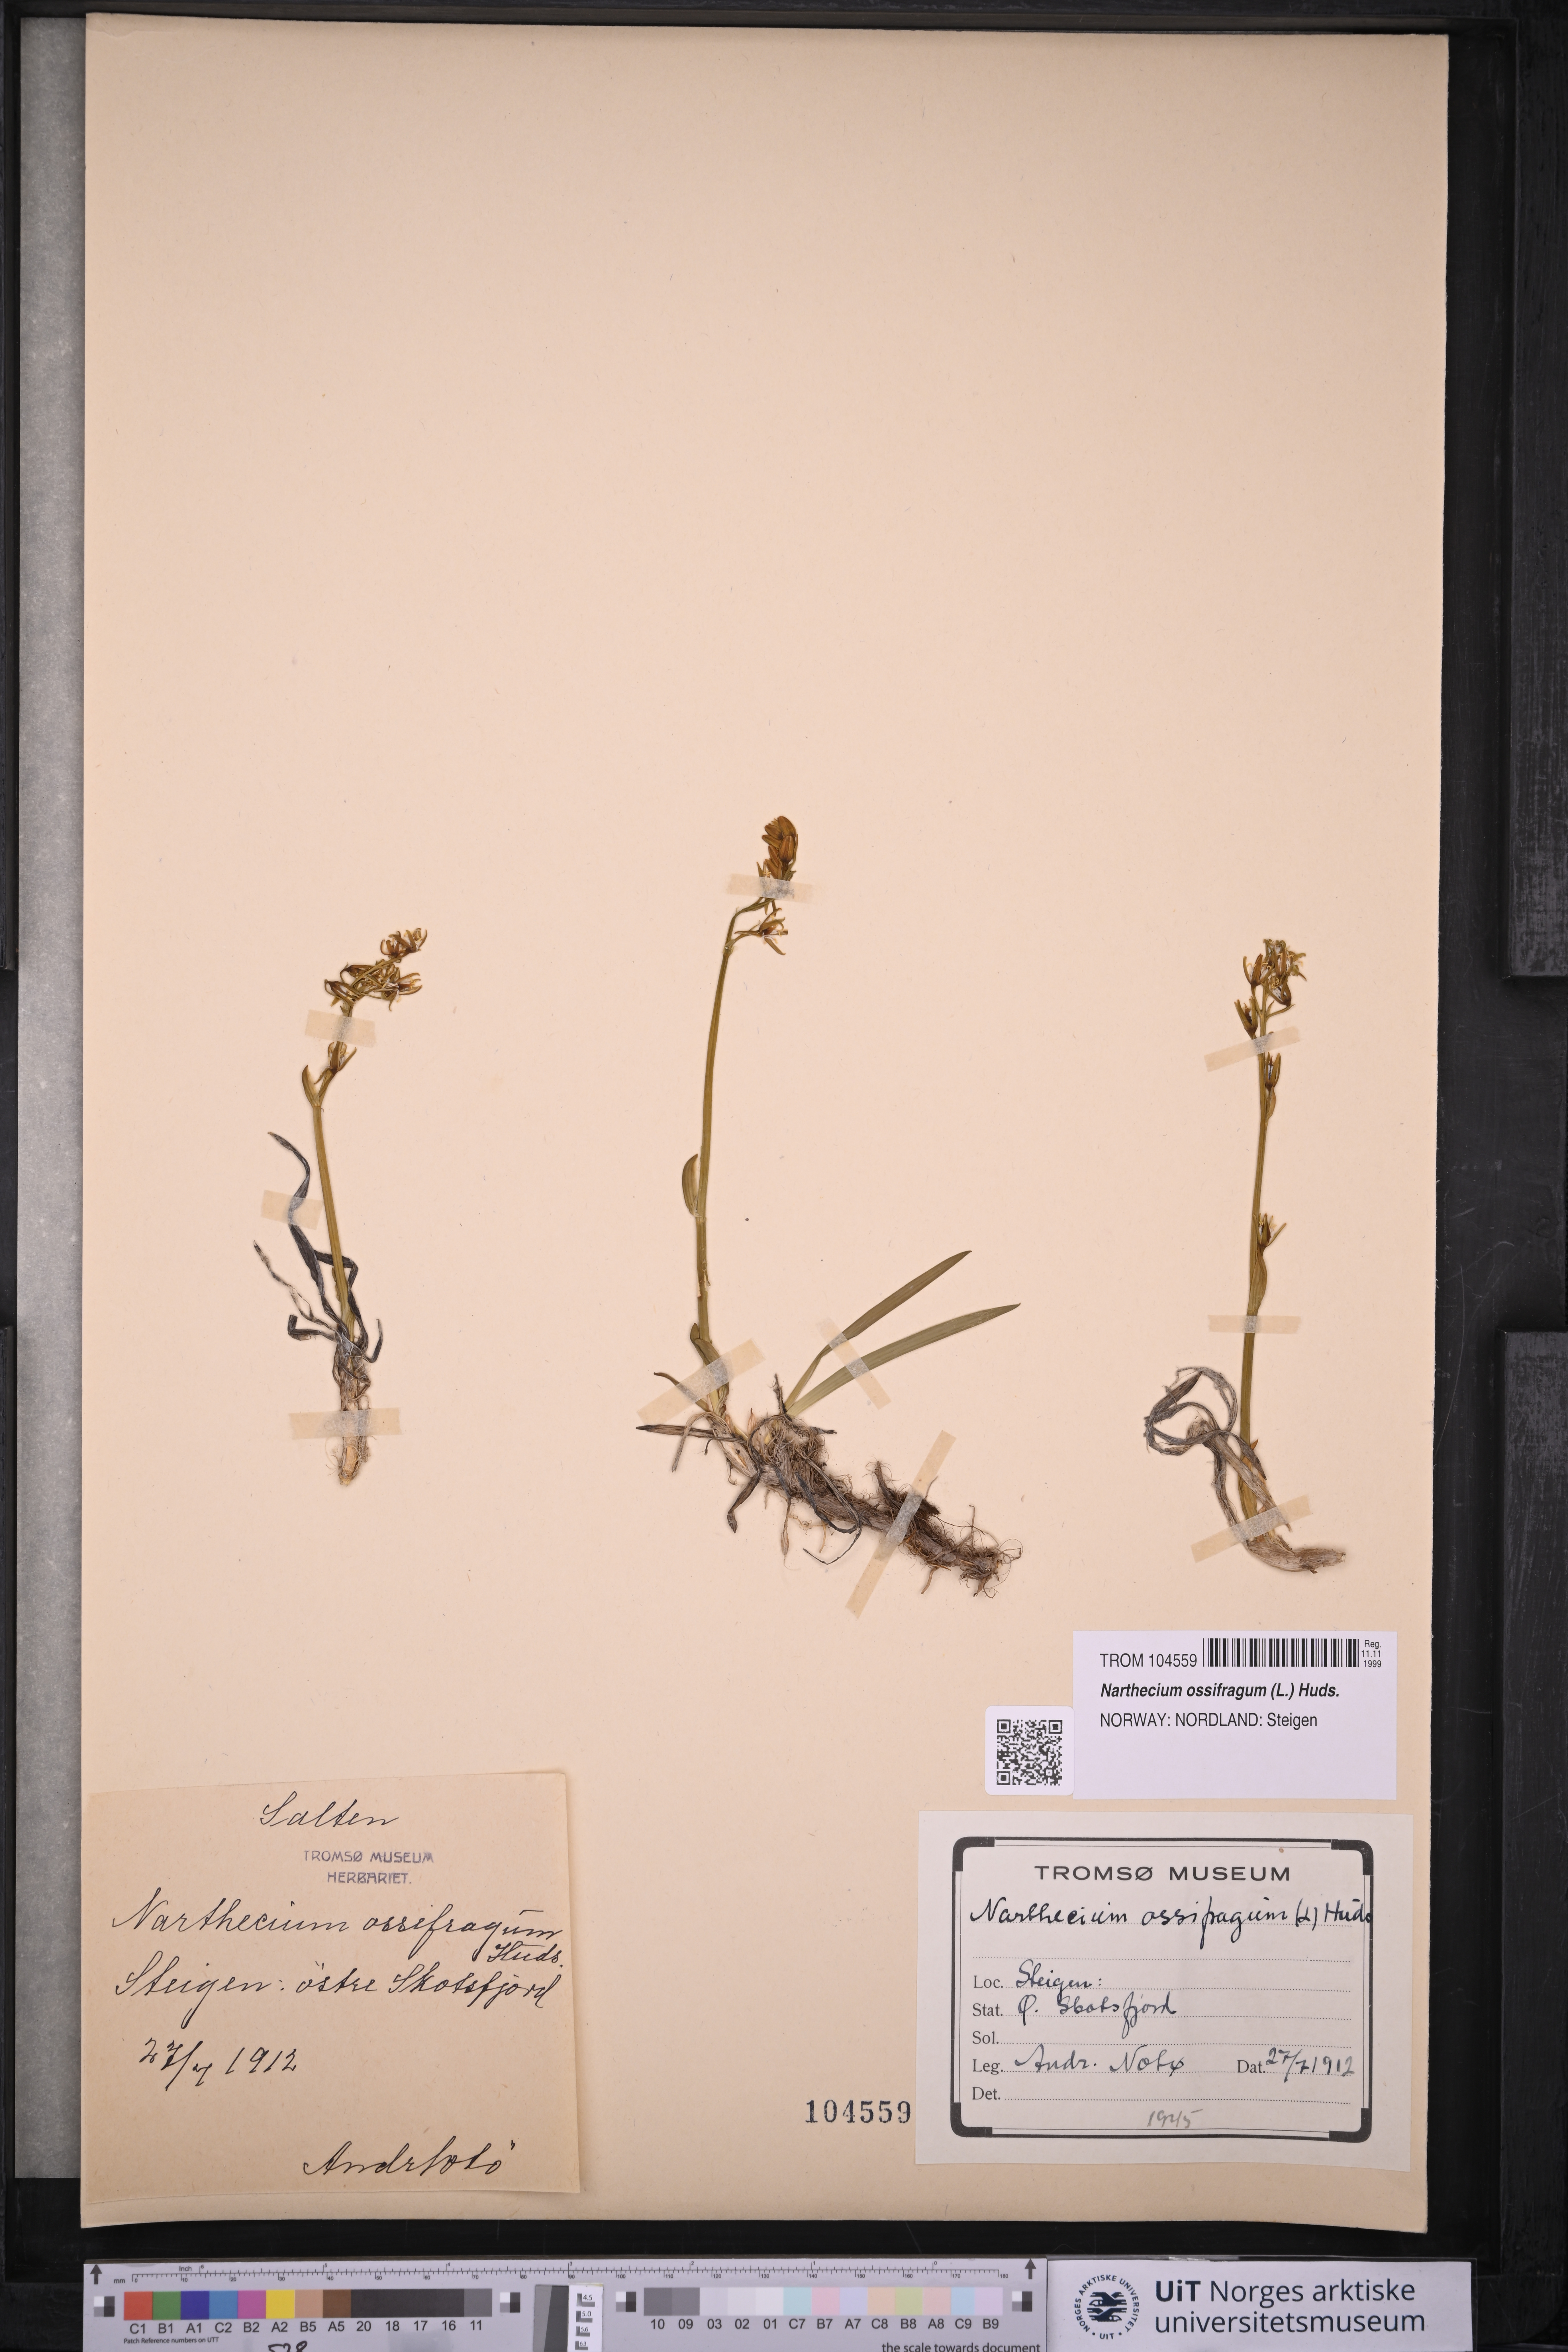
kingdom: Plantae
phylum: Tracheophyta
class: Liliopsida
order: Dioscoreales
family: Nartheciaceae
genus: Narthecium
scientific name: Narthecium ossifragum
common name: Bog asphodel
